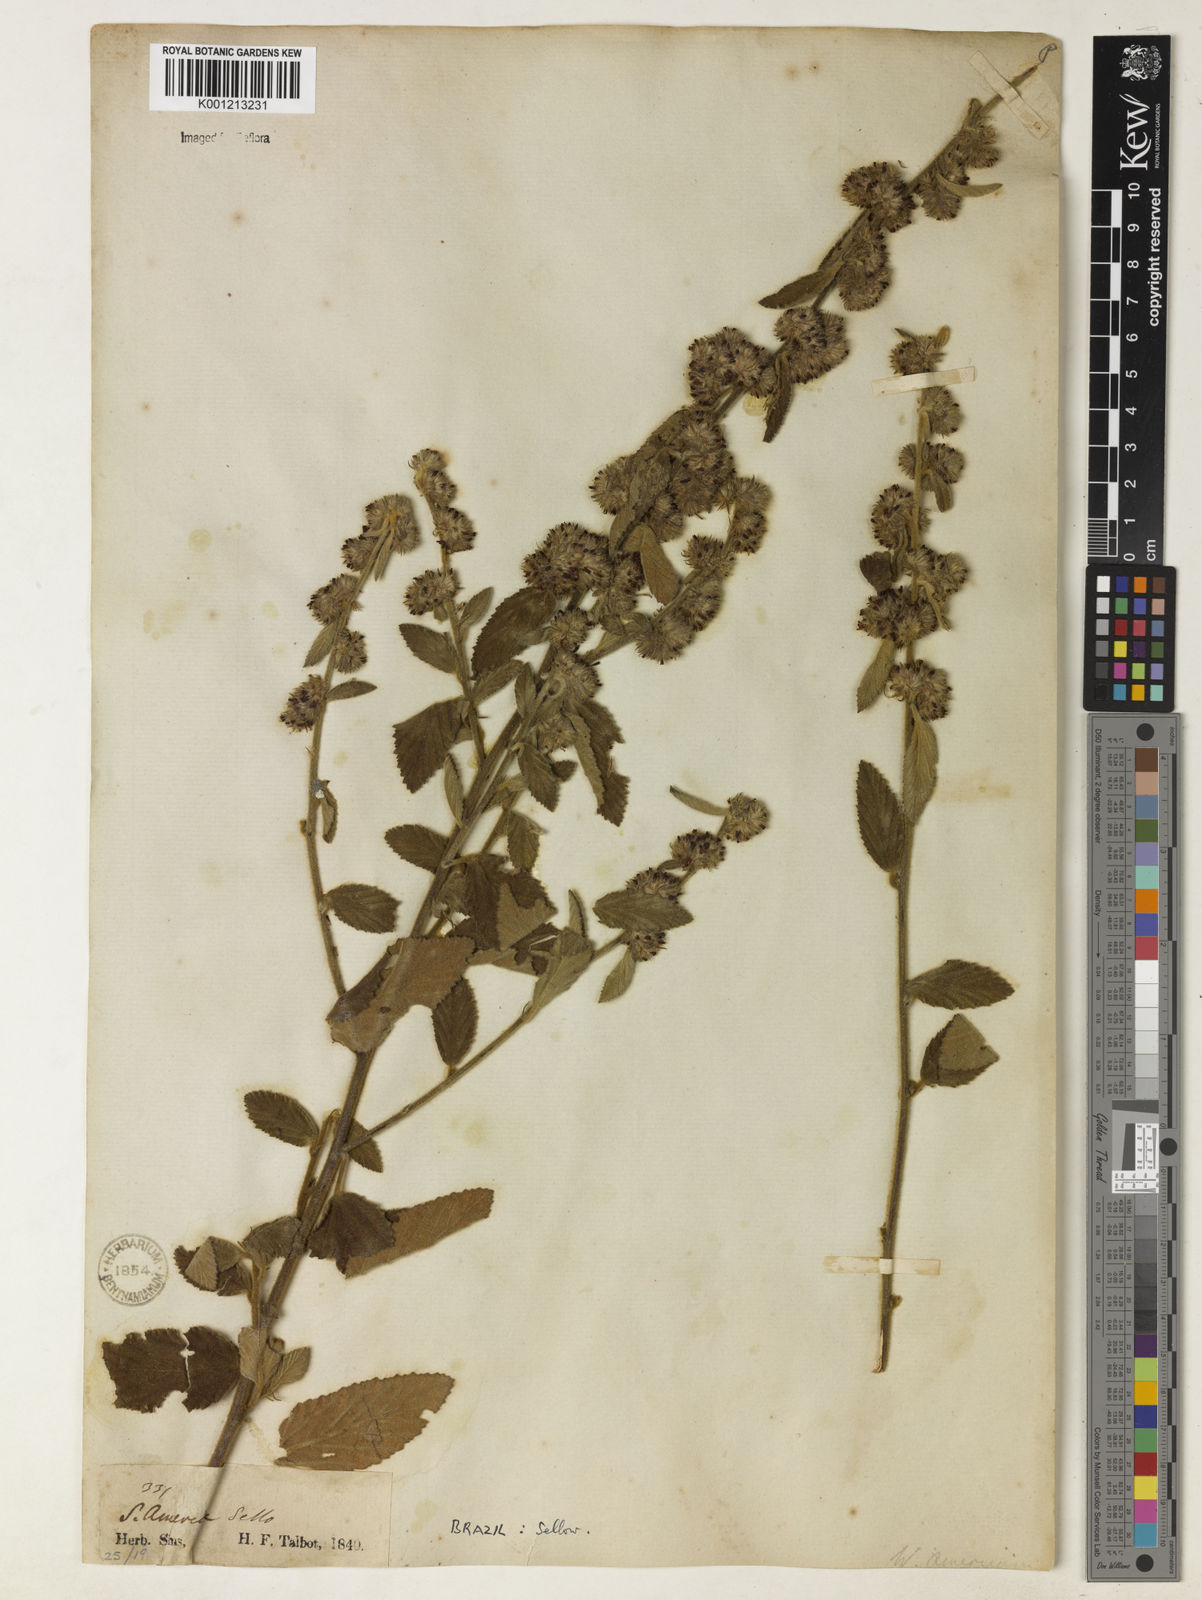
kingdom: Plantae
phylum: Tracheophyta
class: Magnoliopsida
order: Malvales
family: Malvaceae
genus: Waltheria
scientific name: Waltheria indica
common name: Leather-coat
